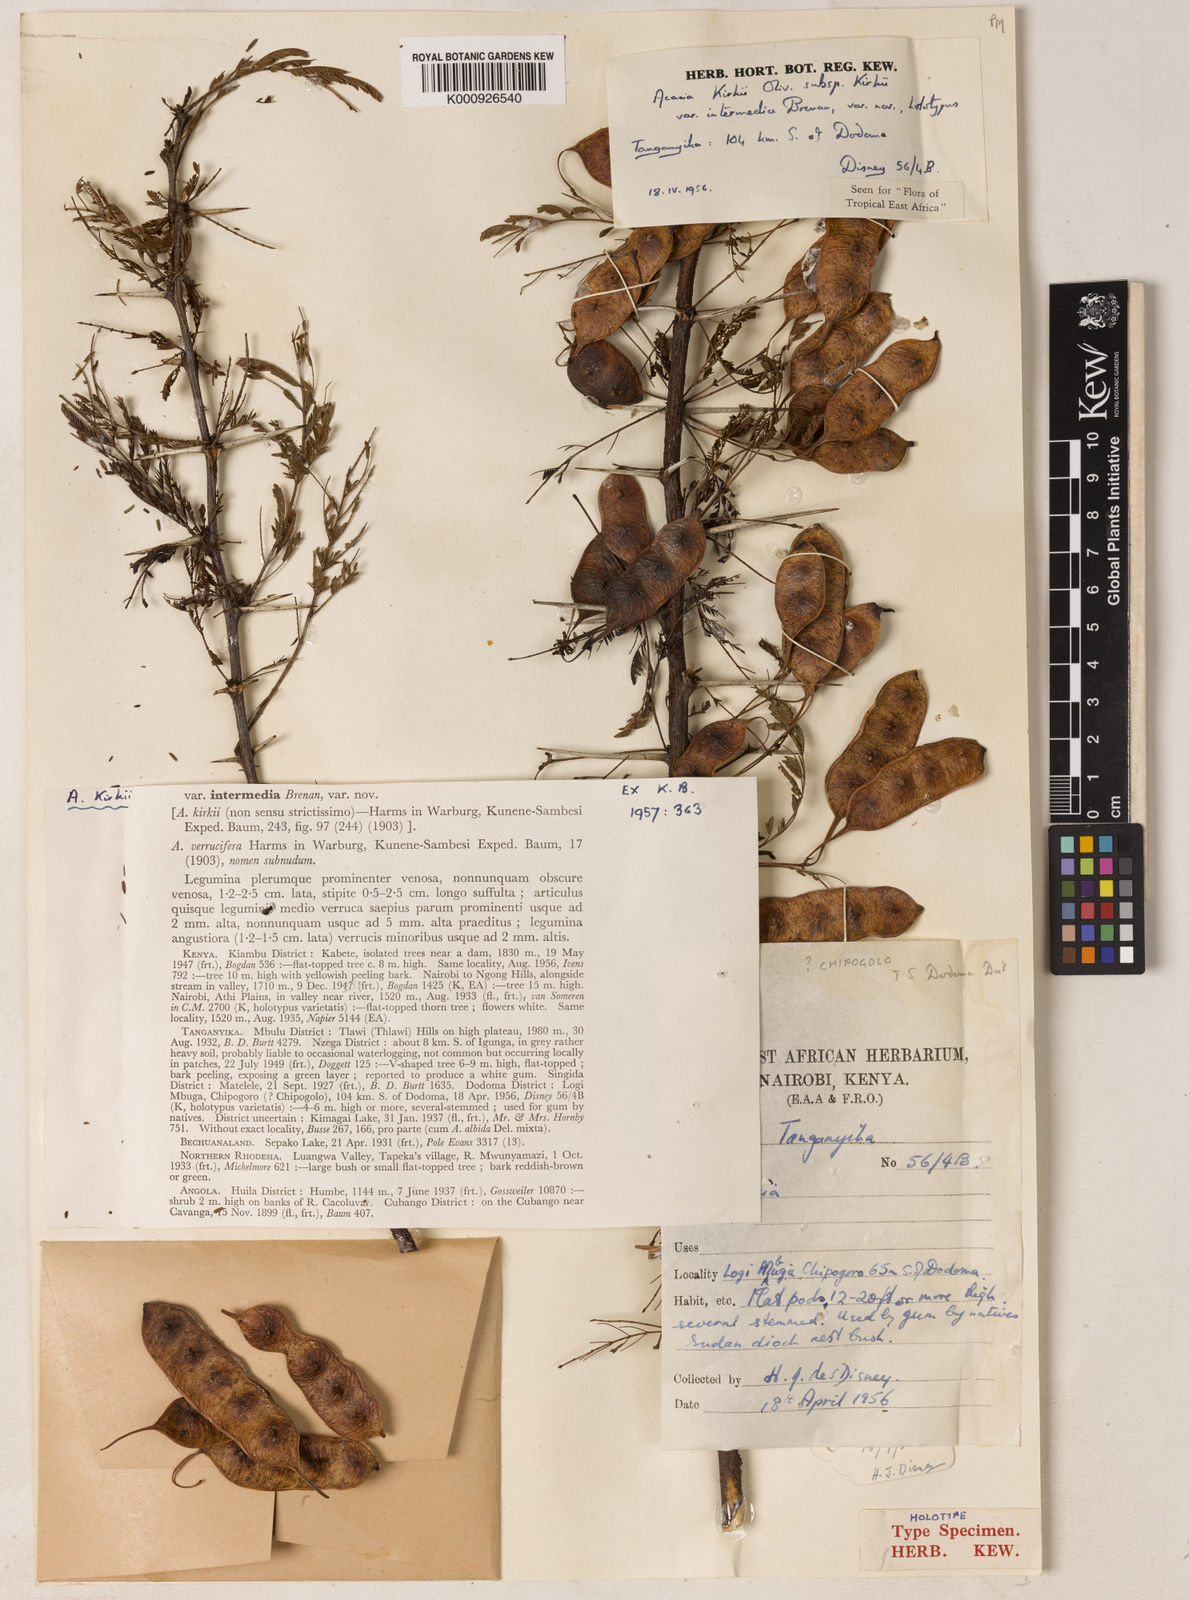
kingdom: Plantae
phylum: Tracheophyta
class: Magnoliopsida
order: Fabales
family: Fabaceae
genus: Vachellia
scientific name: Vachellia kirkii
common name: Flood-plain acacia
